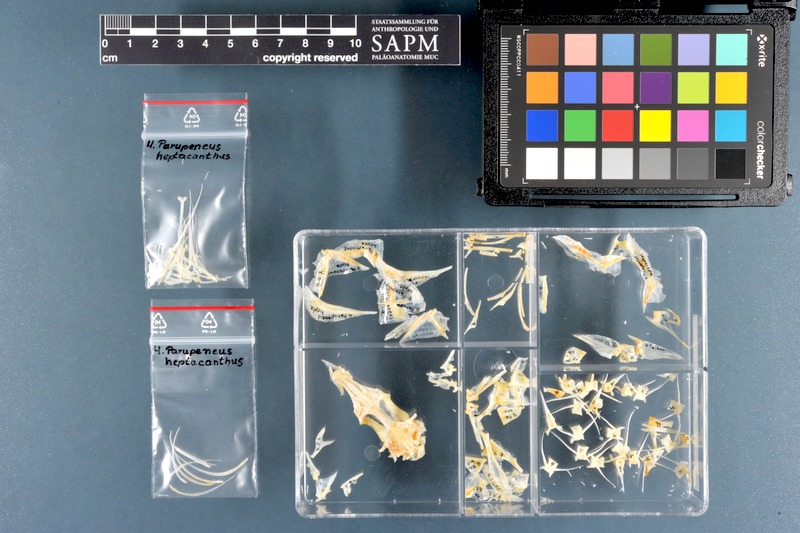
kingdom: Animalia
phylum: Chordata
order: Perciformes
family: Mullidae
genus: Parupeneus
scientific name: Parupeneus heptacanthus
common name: Cinnabar goatfish
